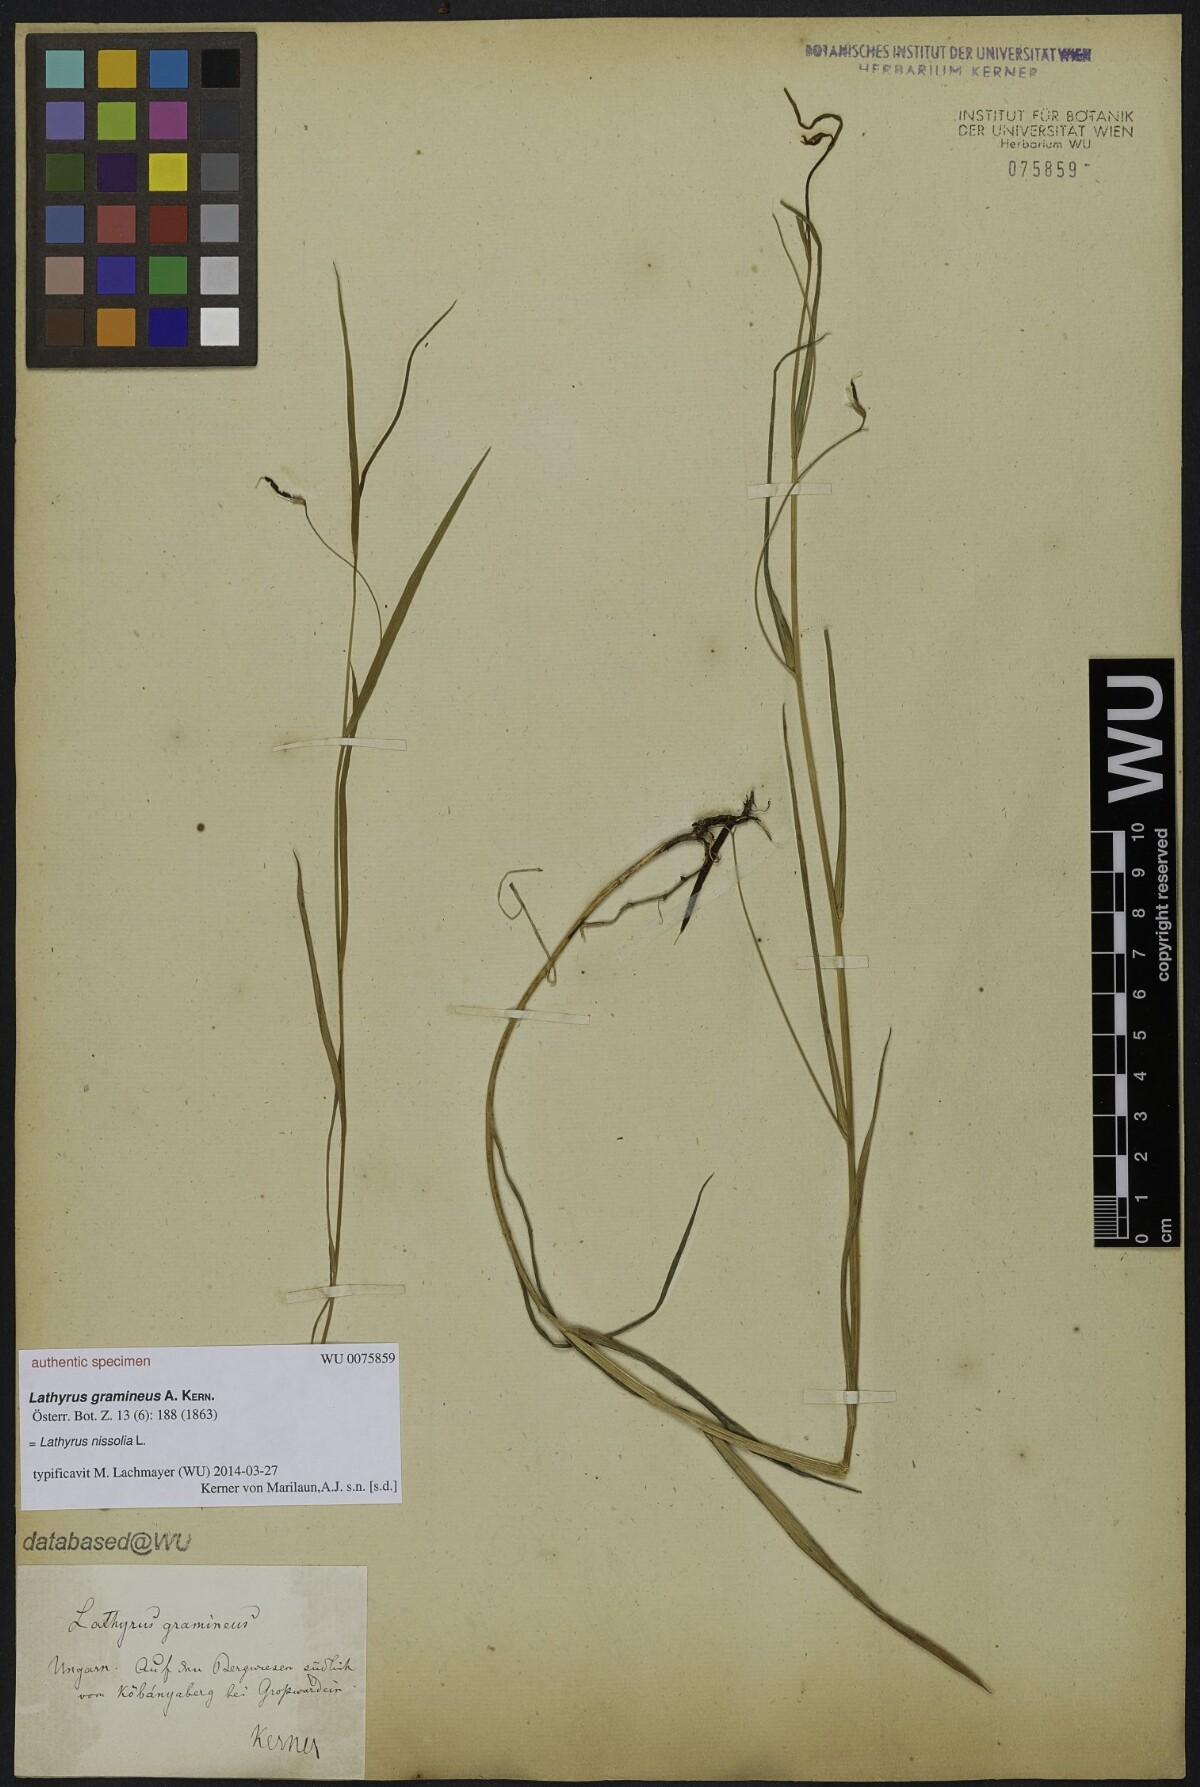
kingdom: Plantae
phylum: Tracheophyta
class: Magnoliopsida
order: Fabales
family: Fabaceae
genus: Lathyrus
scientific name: Lathyrus nissolia
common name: Grass vetchling
